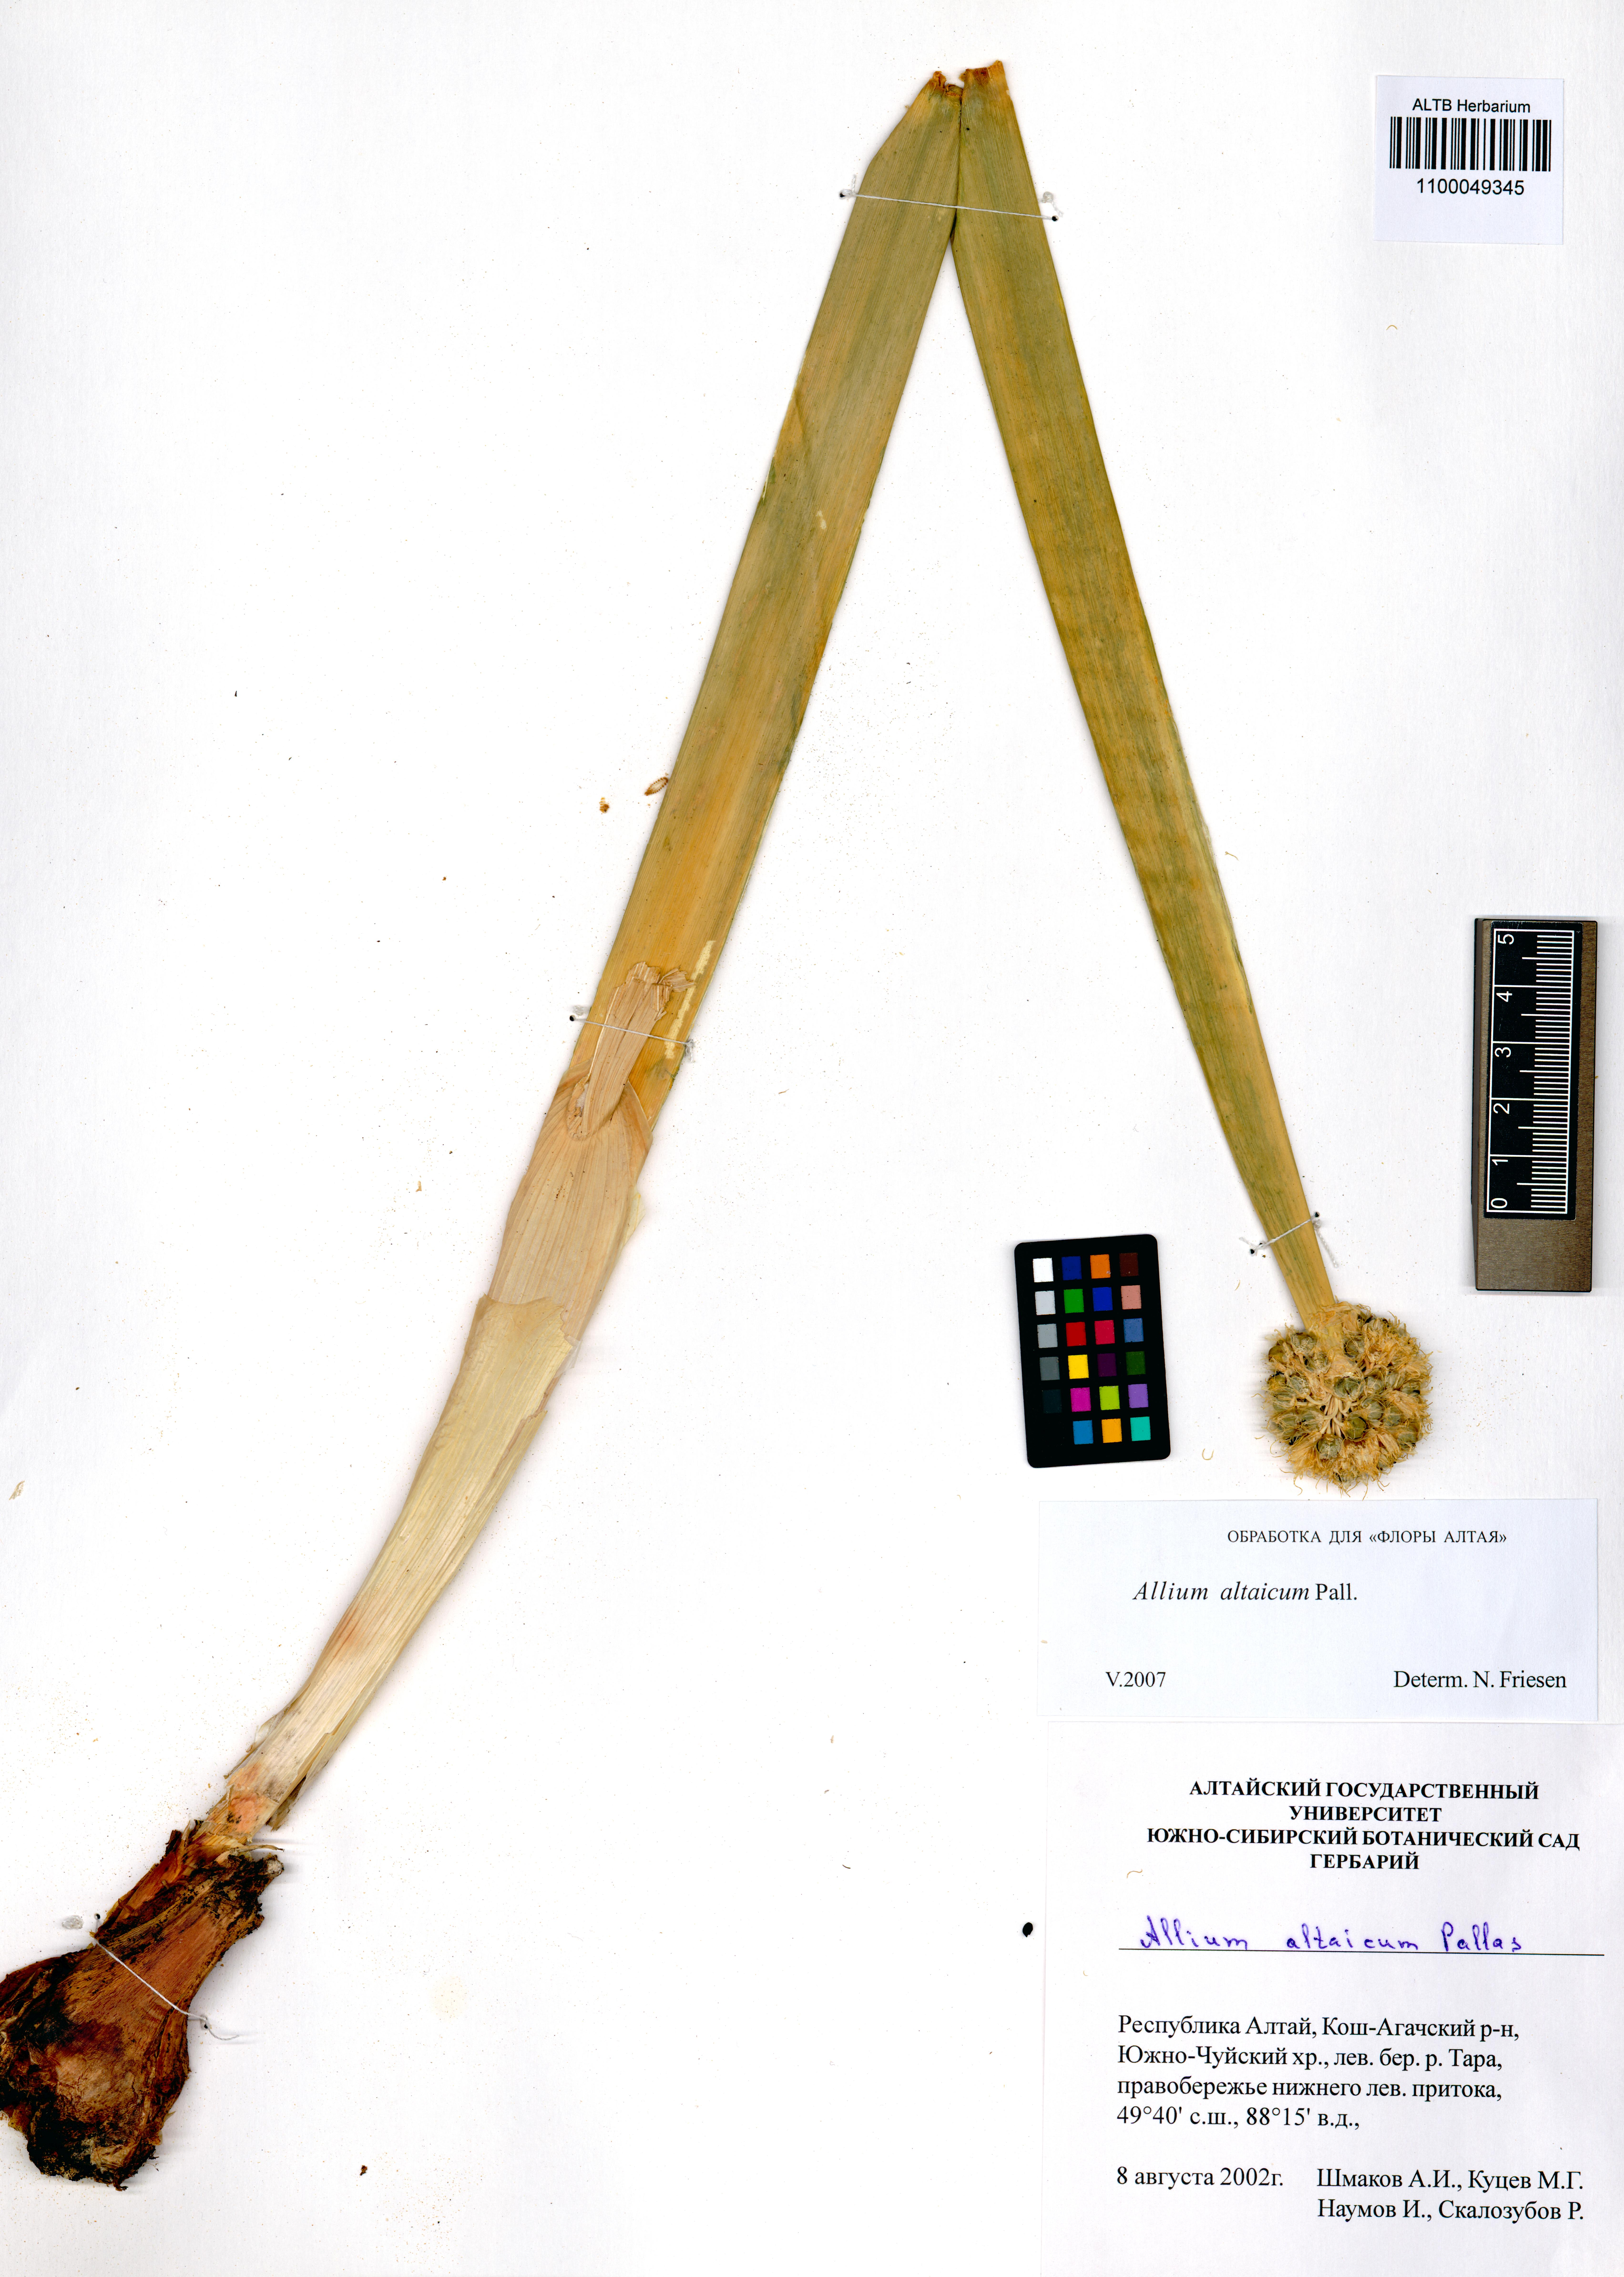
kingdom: Plantae
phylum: Tracheophyta
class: Liliopsida
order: Asparagales
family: Amaryllidaceae
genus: Allium
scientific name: Allium altaicum
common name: Altai onion
